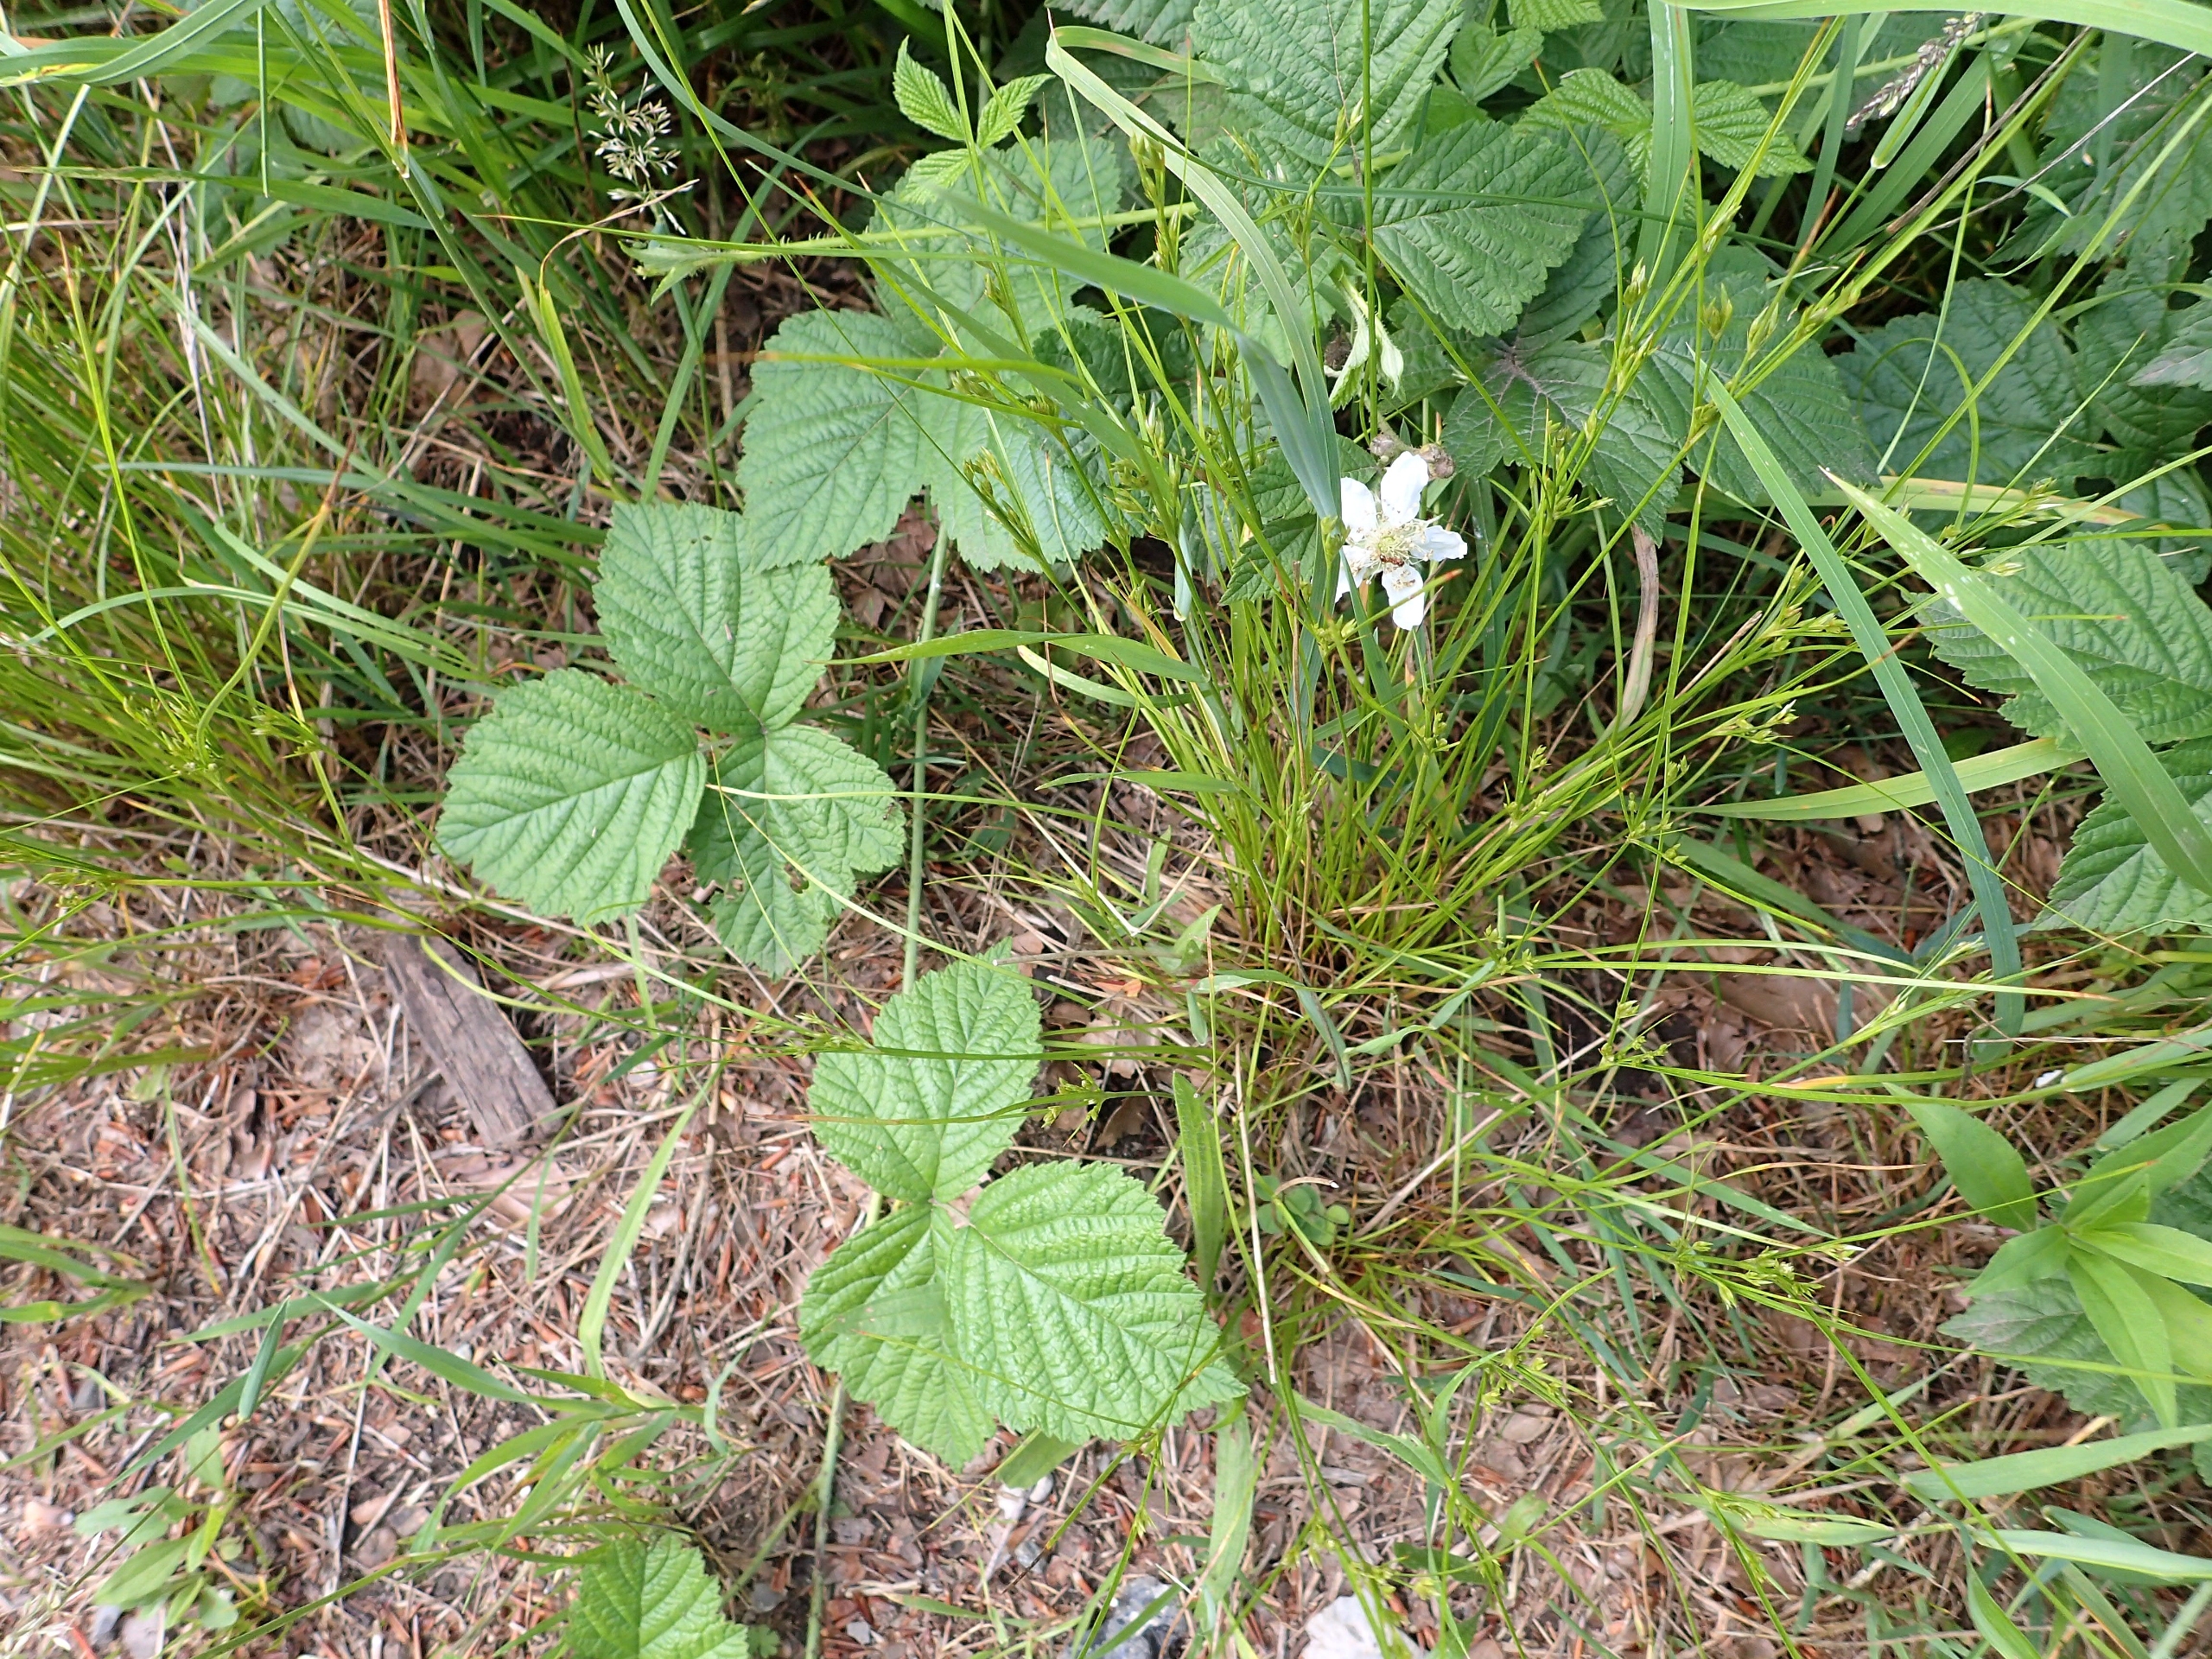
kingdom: Plantae
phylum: Tracheophyta
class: Magnoliopsida
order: Rosales
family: Rosaceae
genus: Rubus
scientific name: Rubus caesius
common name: Korbær
